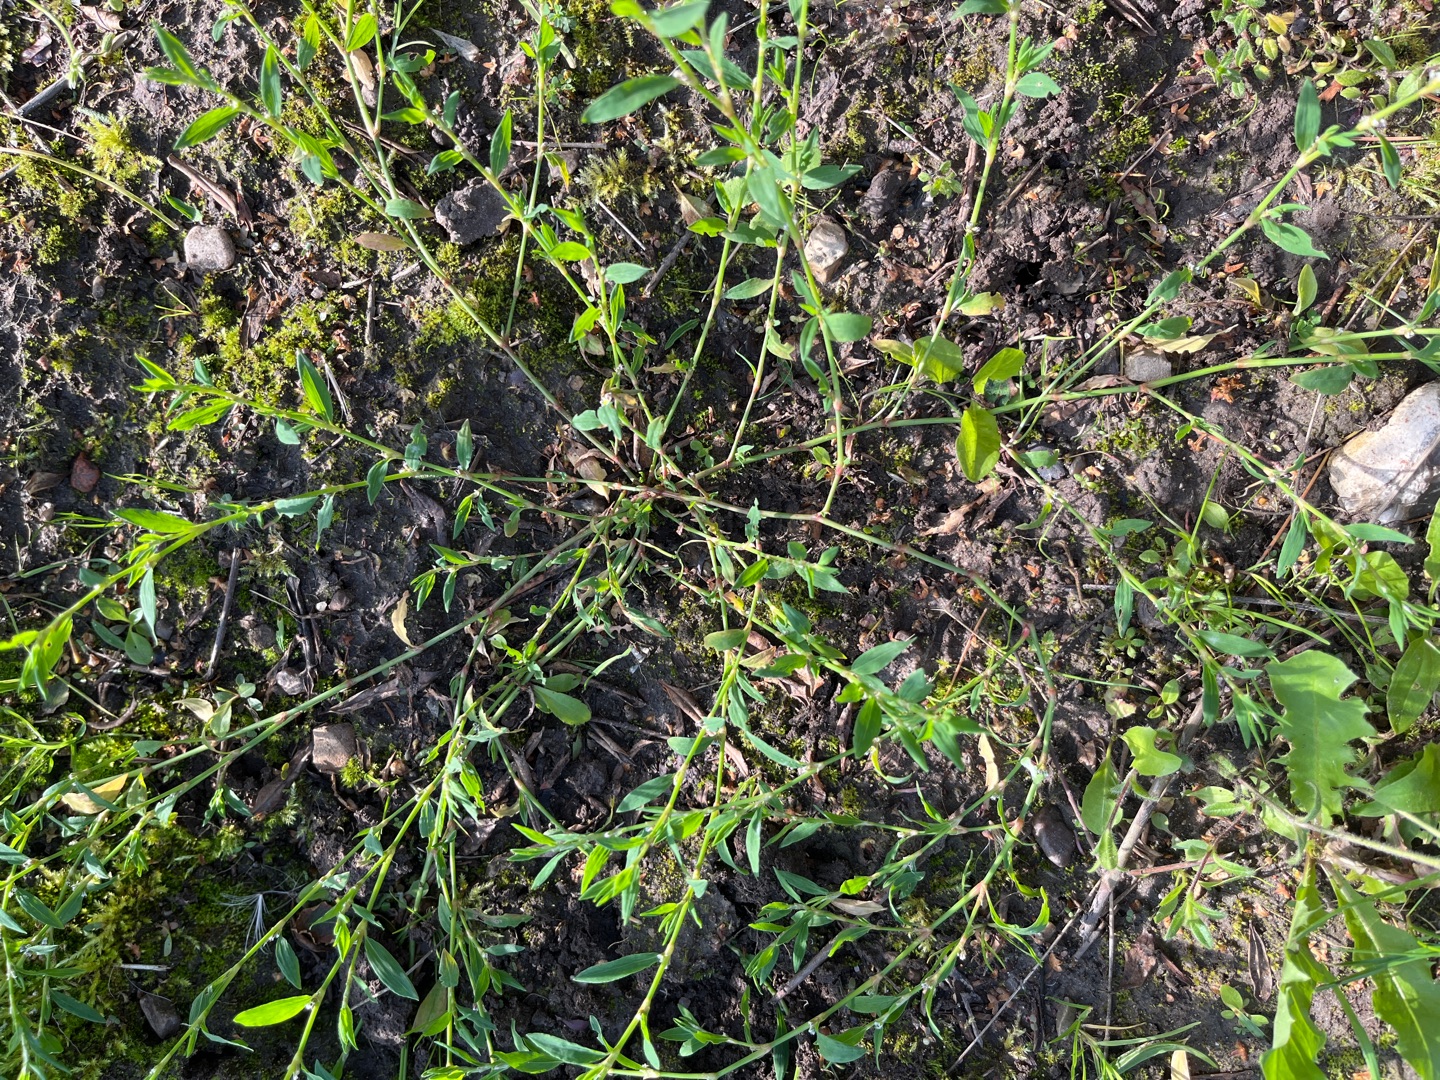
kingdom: Plantae
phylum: Tracheophyta
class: Magnoliopsida
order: Caryophyllales
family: Polygonaceae
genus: Polygonum
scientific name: Polygonum aviculare
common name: Vej-pileurt
